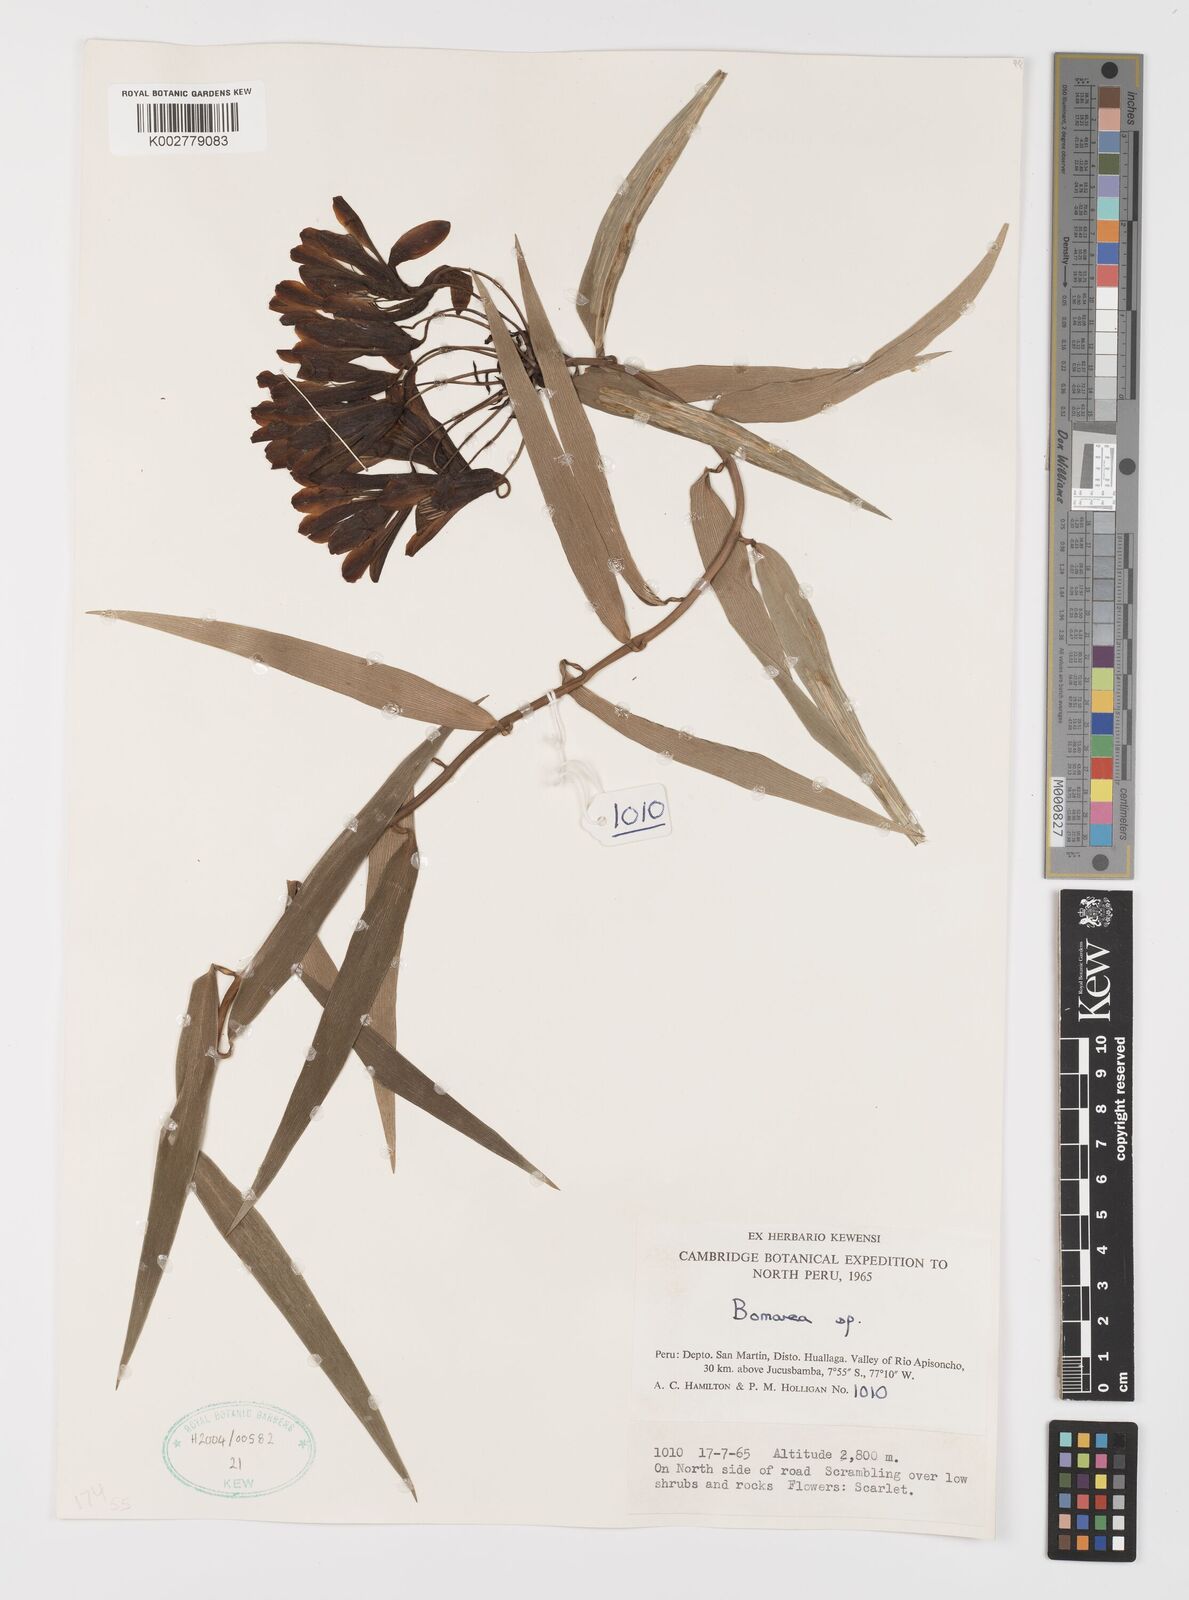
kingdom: Plantae
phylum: Tracheophyta
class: Liliopsida
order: Liliales
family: Alstroemeriaceae
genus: Bomarea
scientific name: Bomarea
